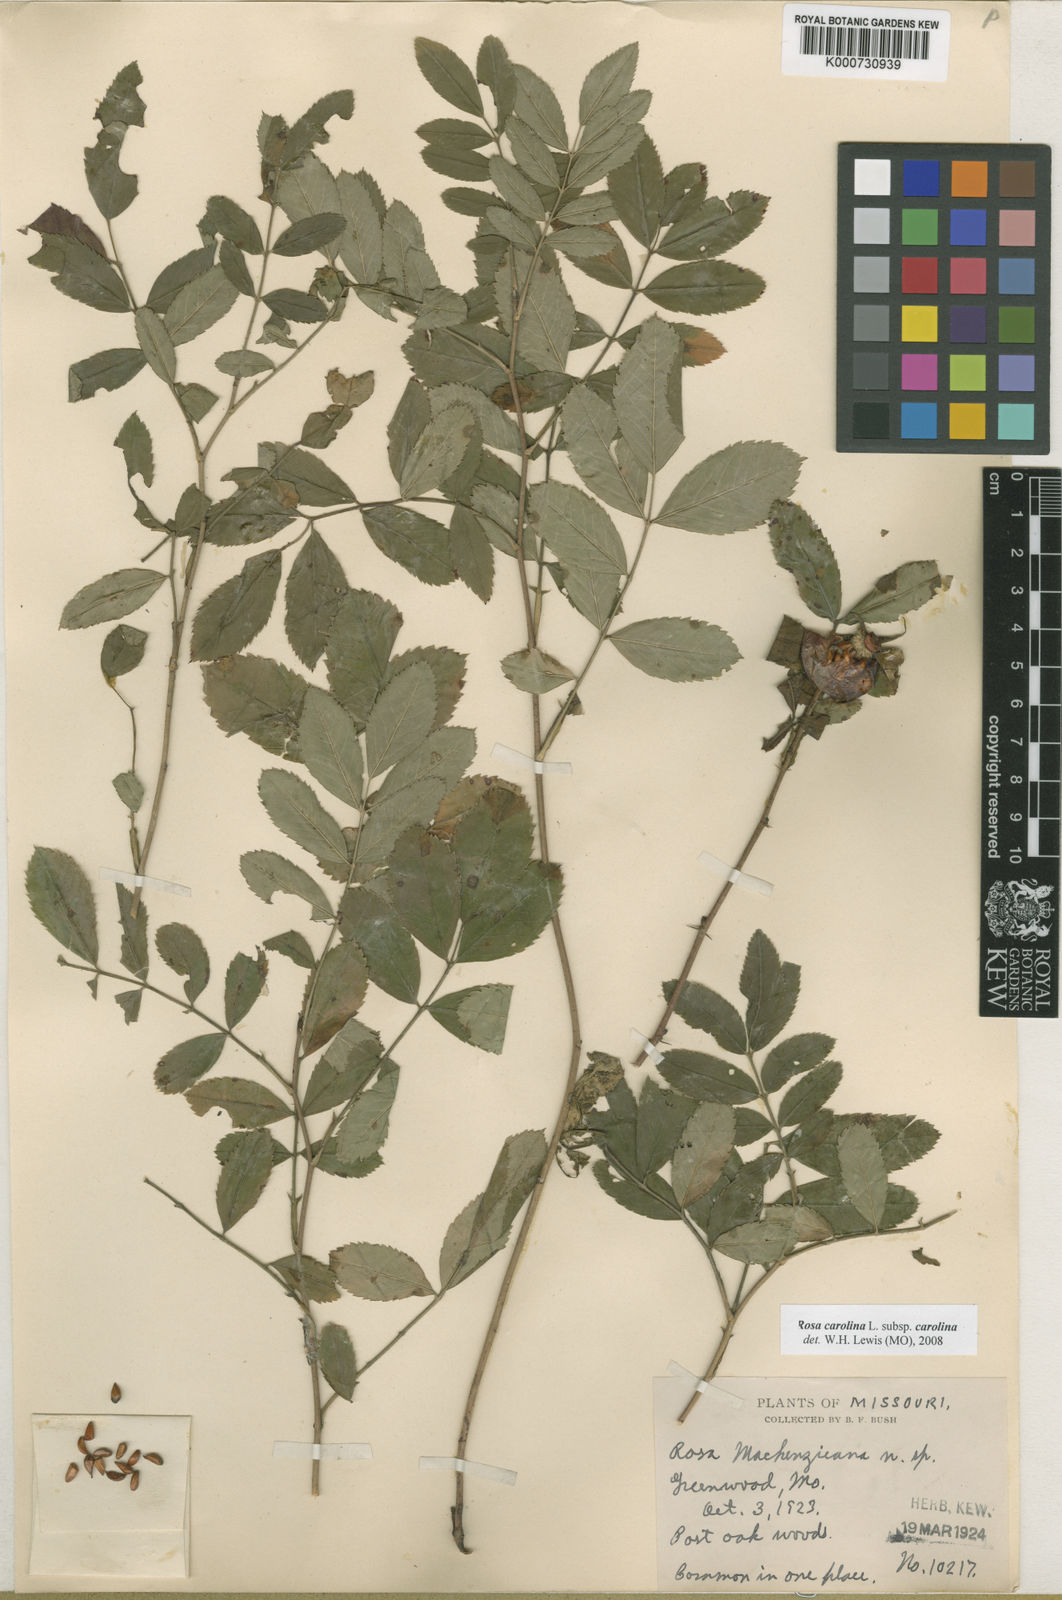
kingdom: Plantae
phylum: Tracheophyta
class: Magnoliopsida
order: Rosales
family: Rosaceae
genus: Rosa
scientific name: Rosa carolina
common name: Pasture rose
